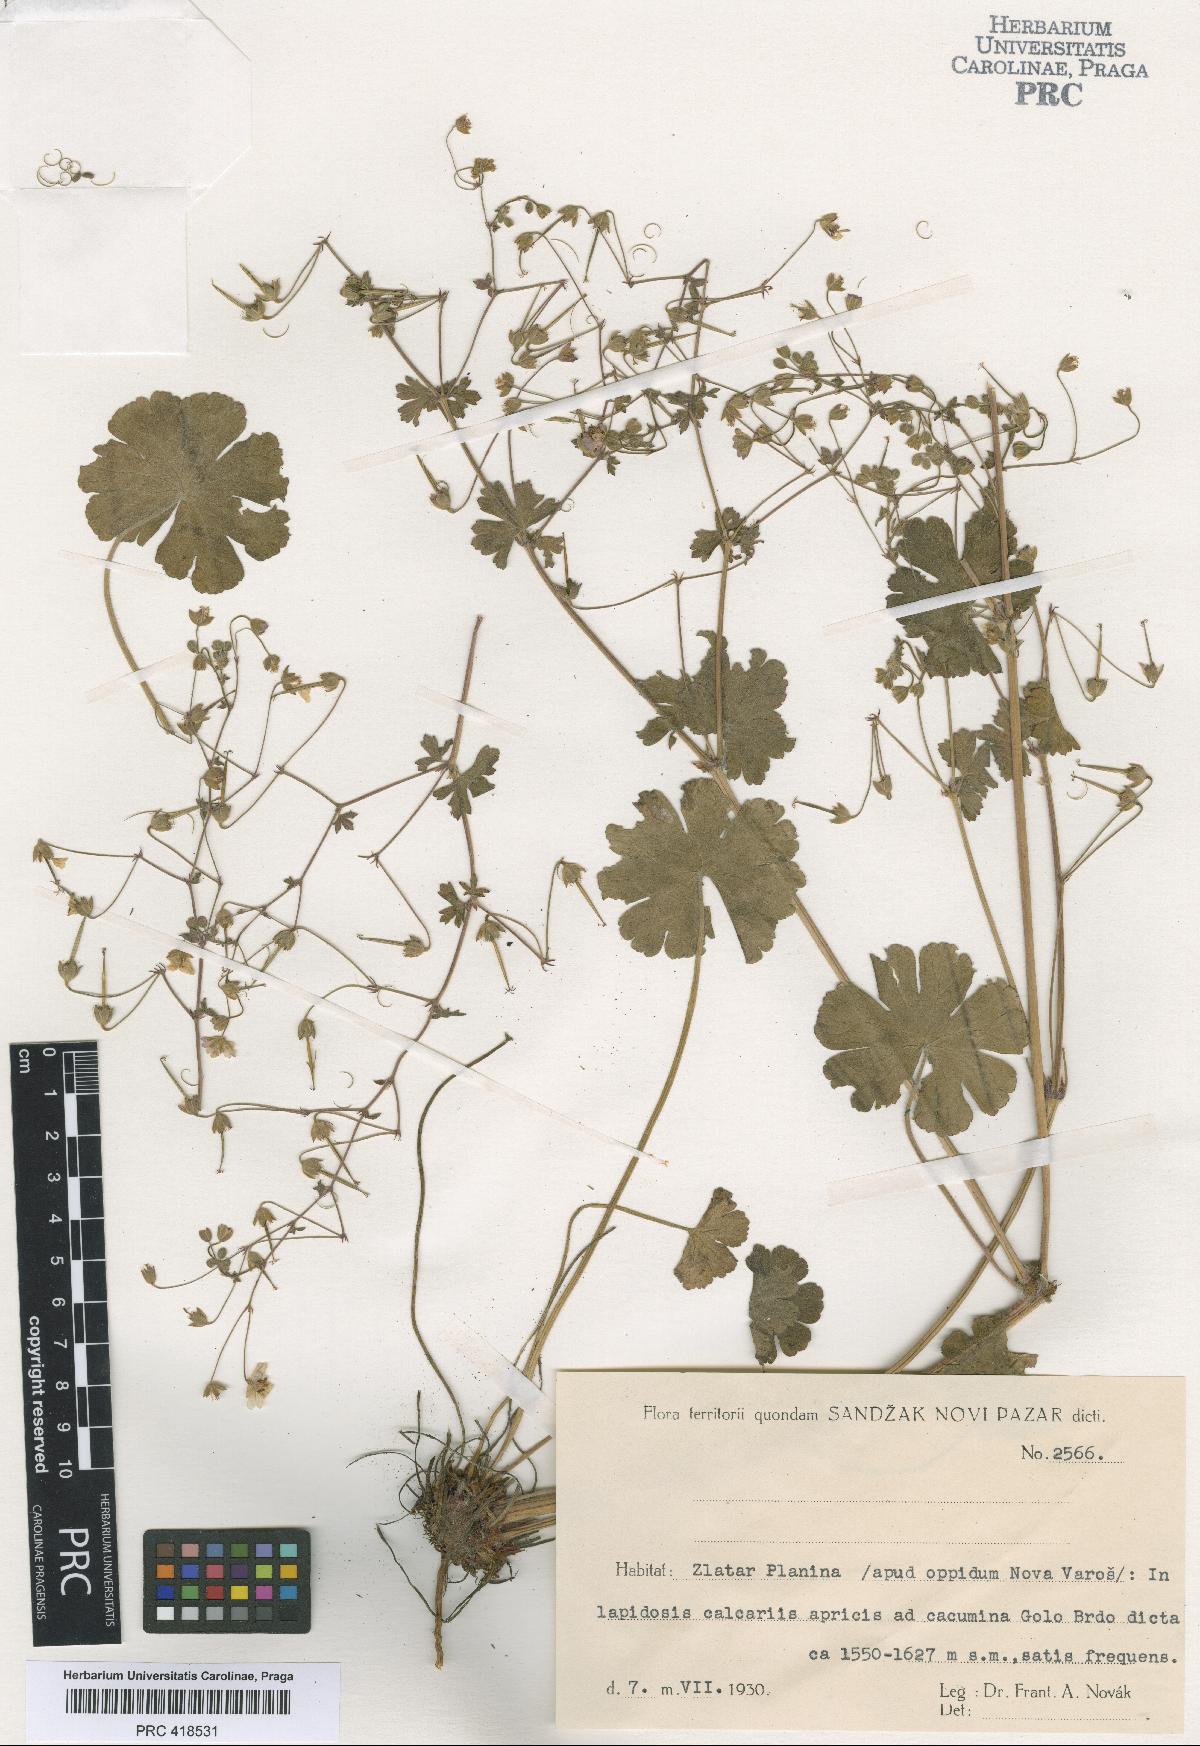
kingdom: Plantae
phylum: Tracheophyta
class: Magnoliopsida
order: Geraniales
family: Geraniaceae
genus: Geranium
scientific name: Geranium pyrenaicum
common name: Hedgerow crane's-bill
